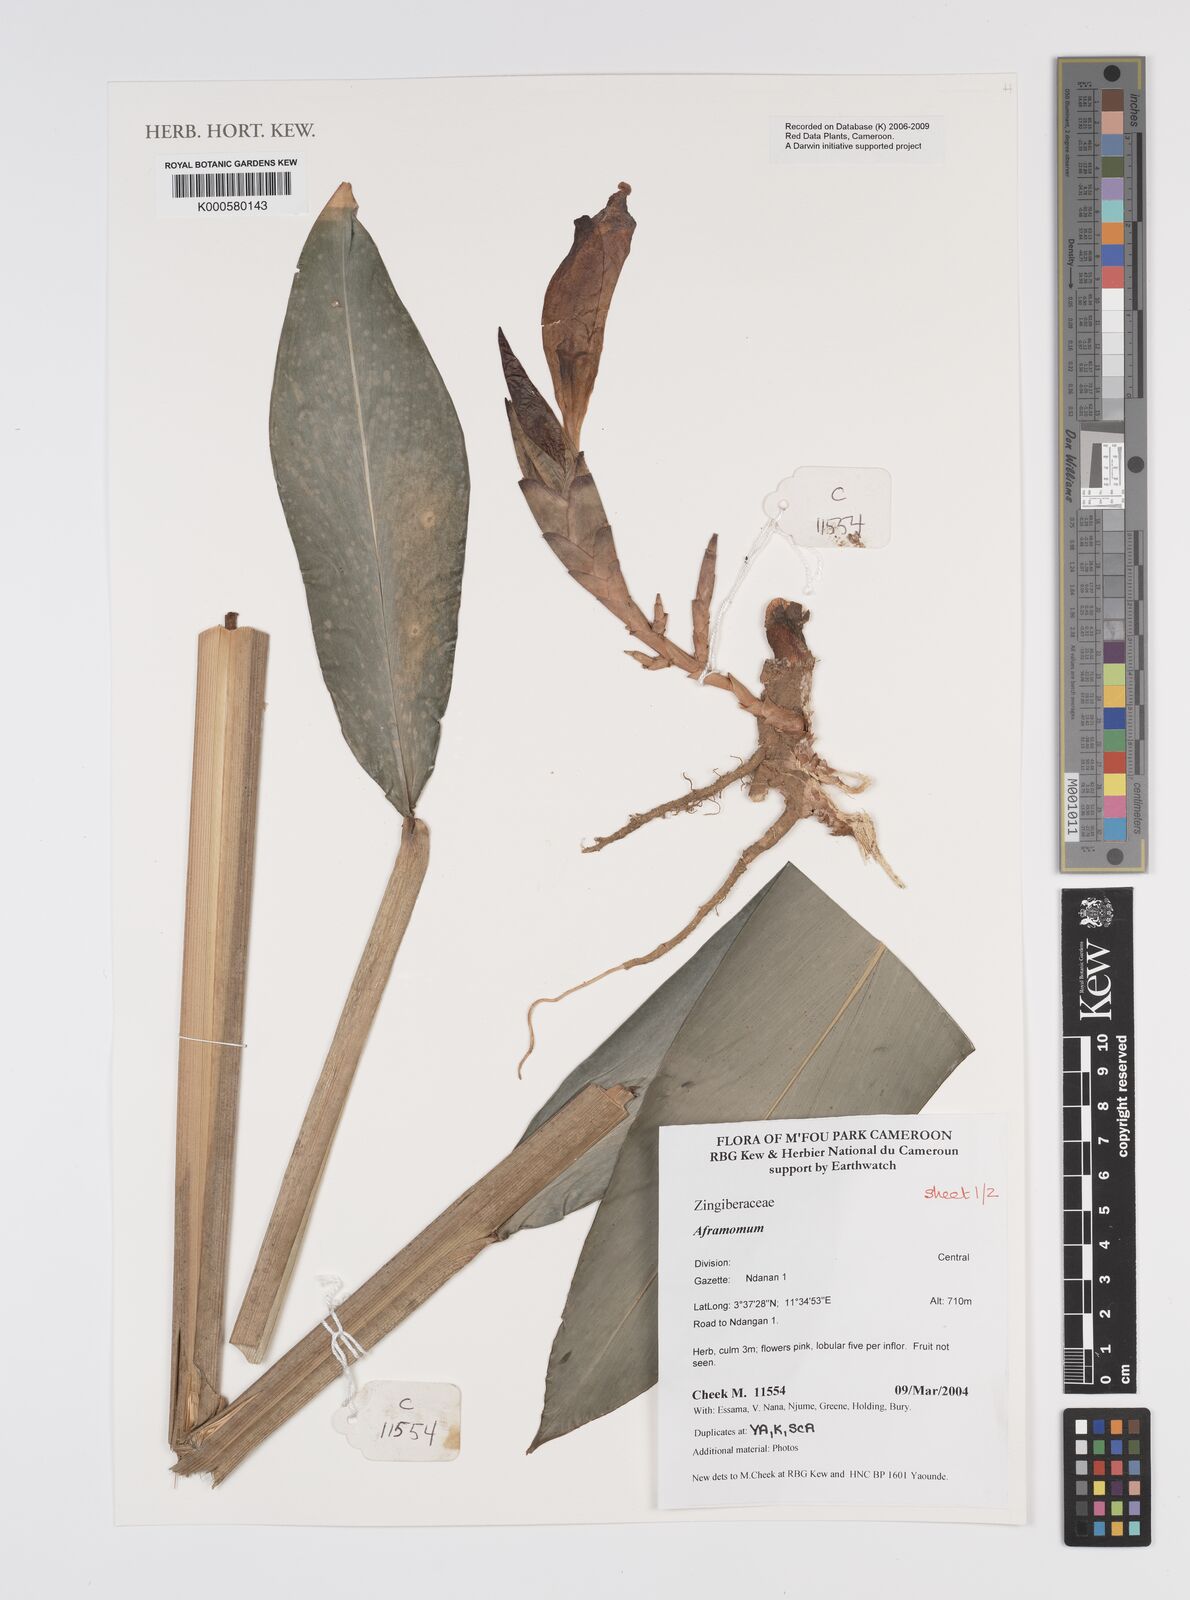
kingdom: Plantae
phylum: Tracheophyta
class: Liliopsida
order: Zingiberales
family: Zingiberaceae
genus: Aframomum
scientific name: Aframomum
